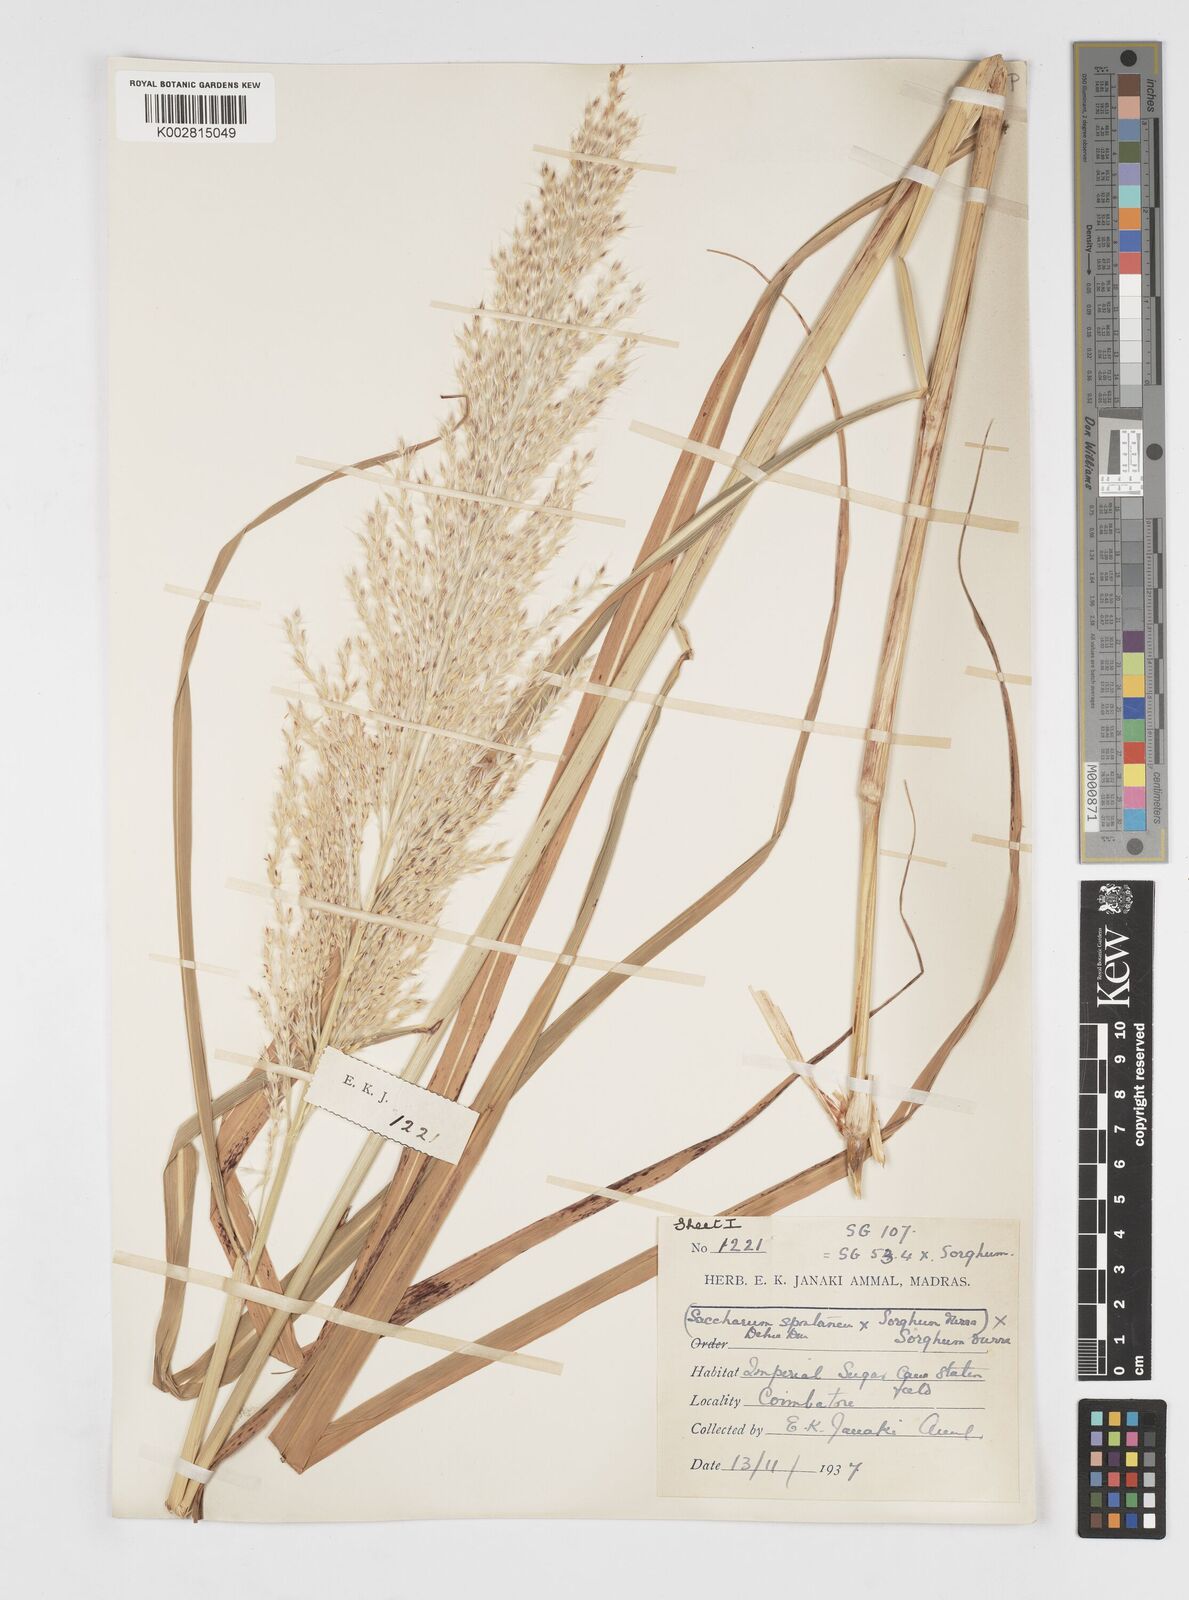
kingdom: Plantae
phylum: Tracheophyta
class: Liliopsida
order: Poales
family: Poaceae
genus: Saccharum
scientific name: Saccharum
